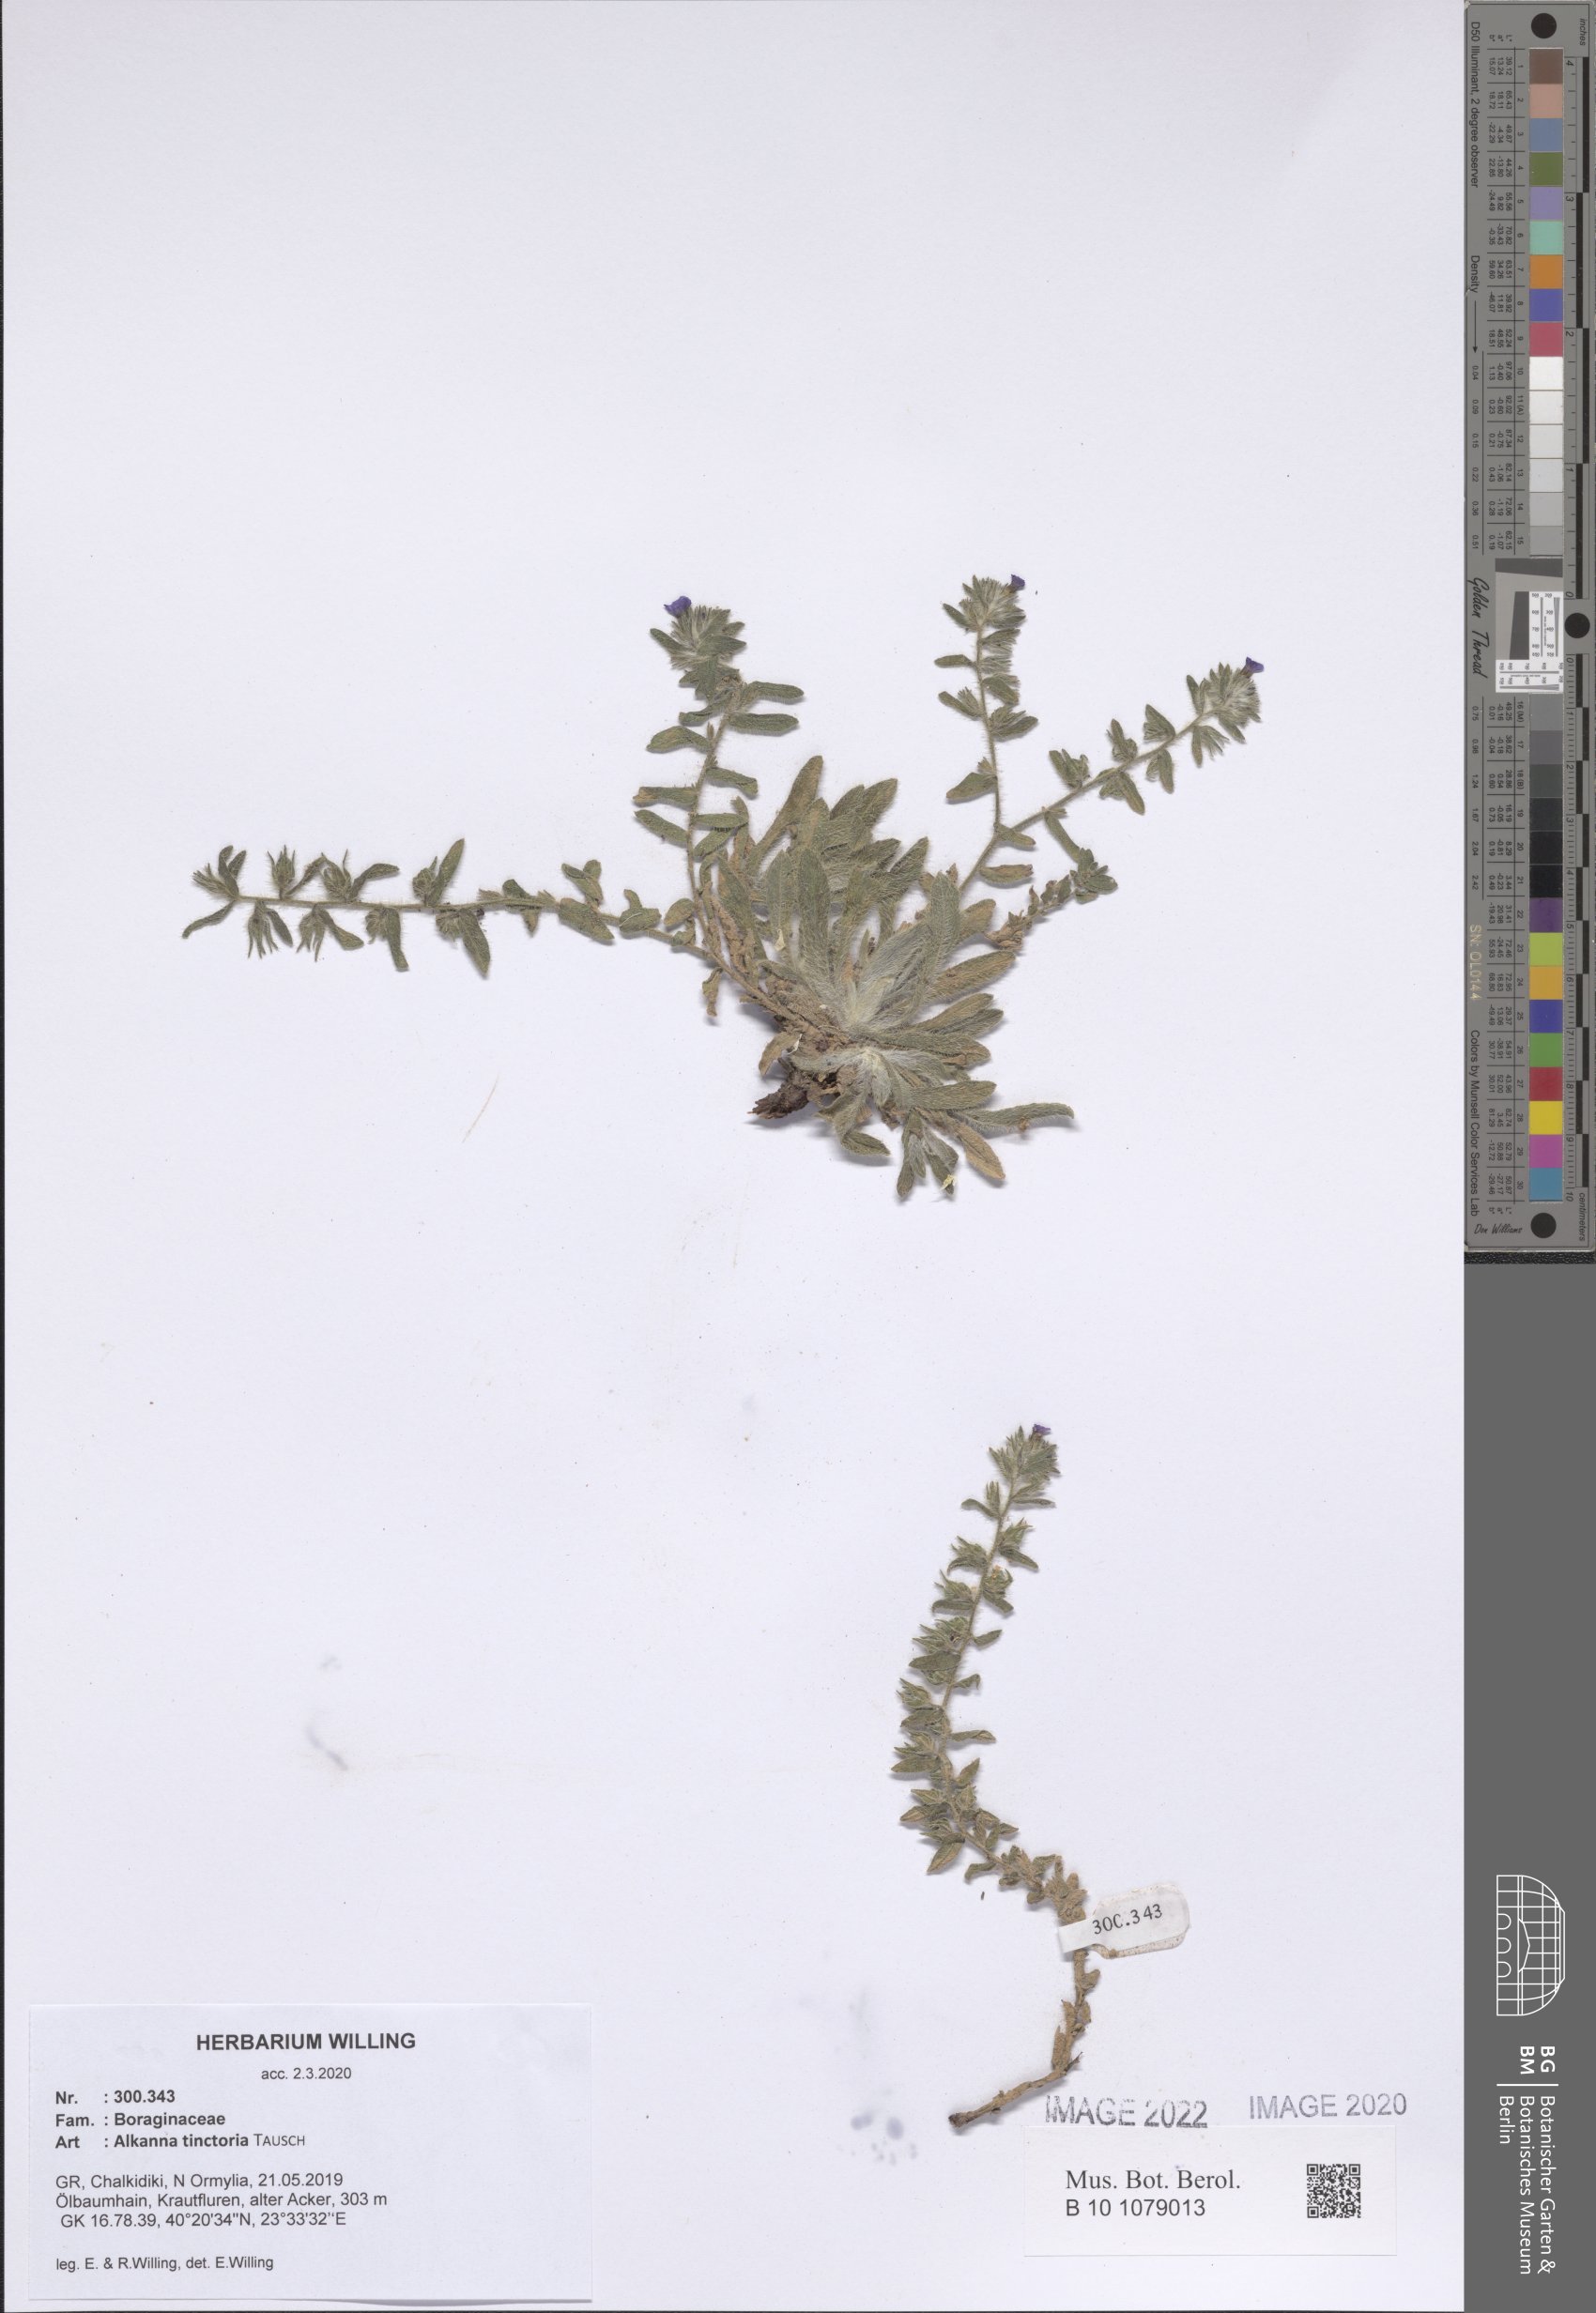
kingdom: Plantae
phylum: Tracheophyta
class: Magnoliopsida
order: Boraginales
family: Boraginaceae
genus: Alkanna
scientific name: Alkanna tinctoria
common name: Dyer's-alkanet
